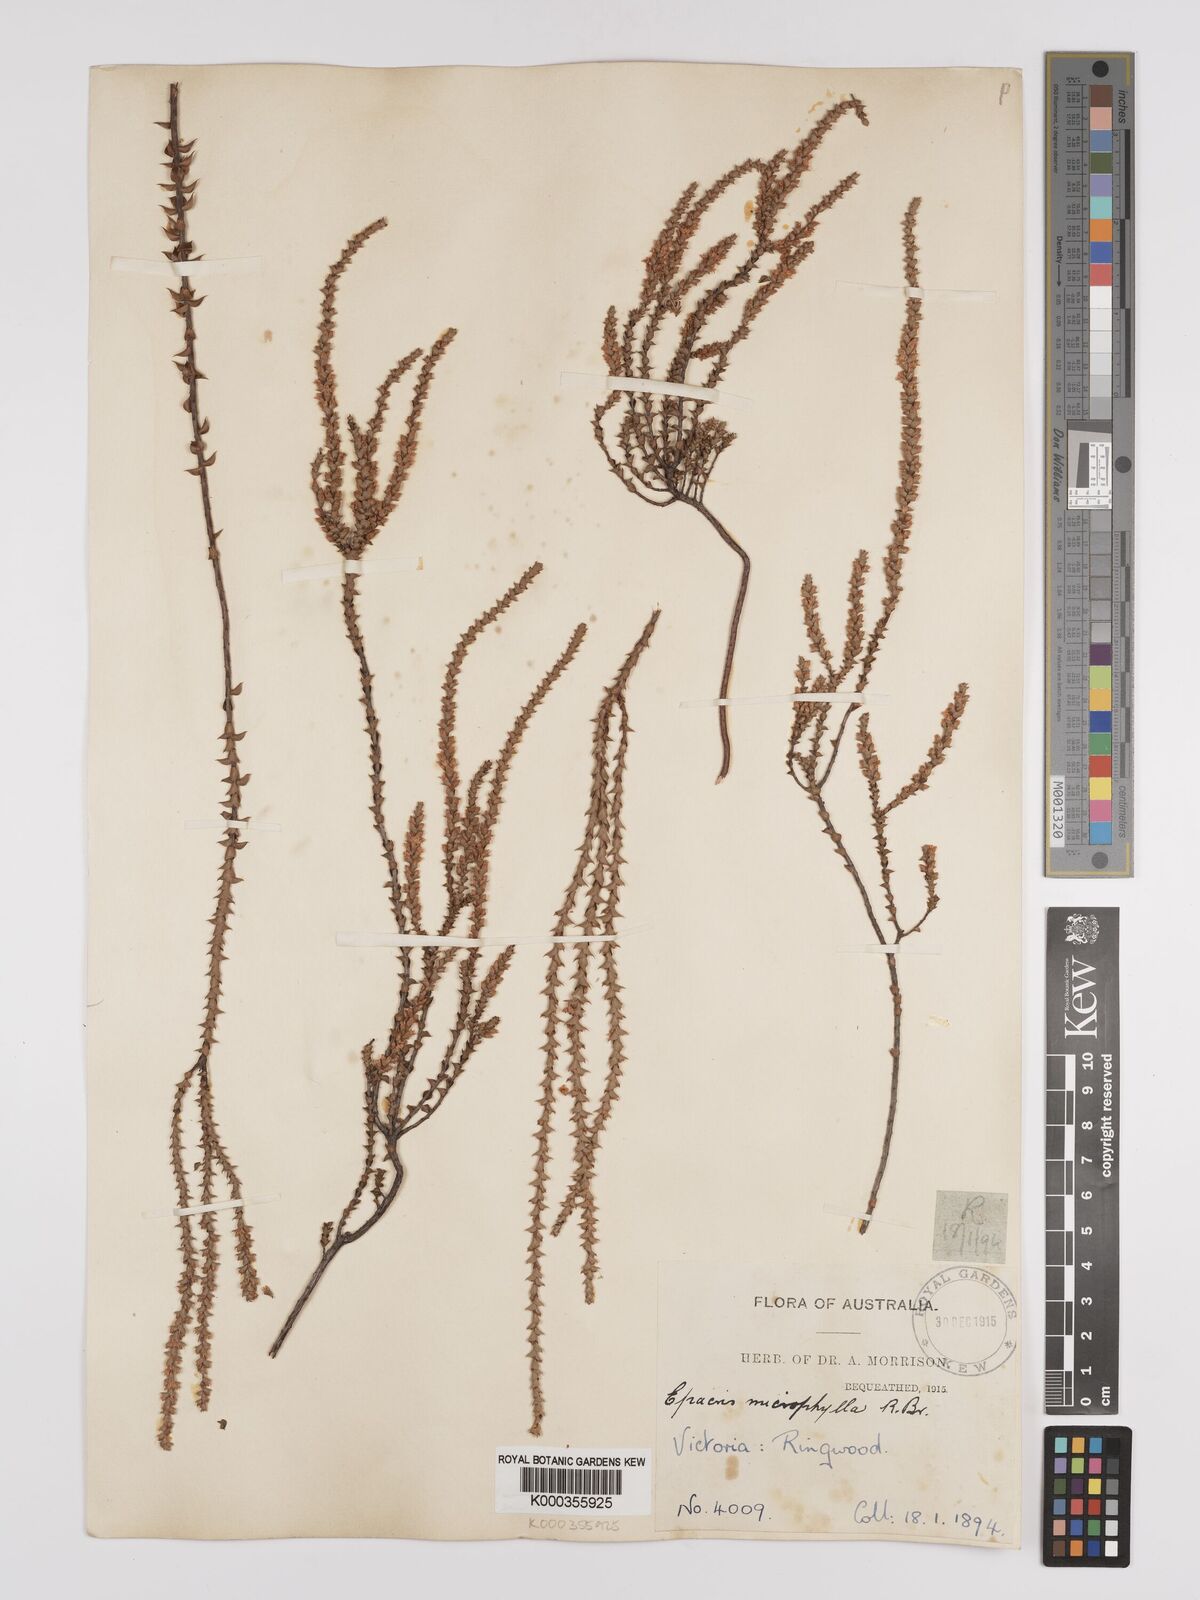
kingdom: Plantae
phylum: Tracheophyta
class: Magnoliopsida
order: Ericales
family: Ericaceae
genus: Epacris
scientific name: Epacris
